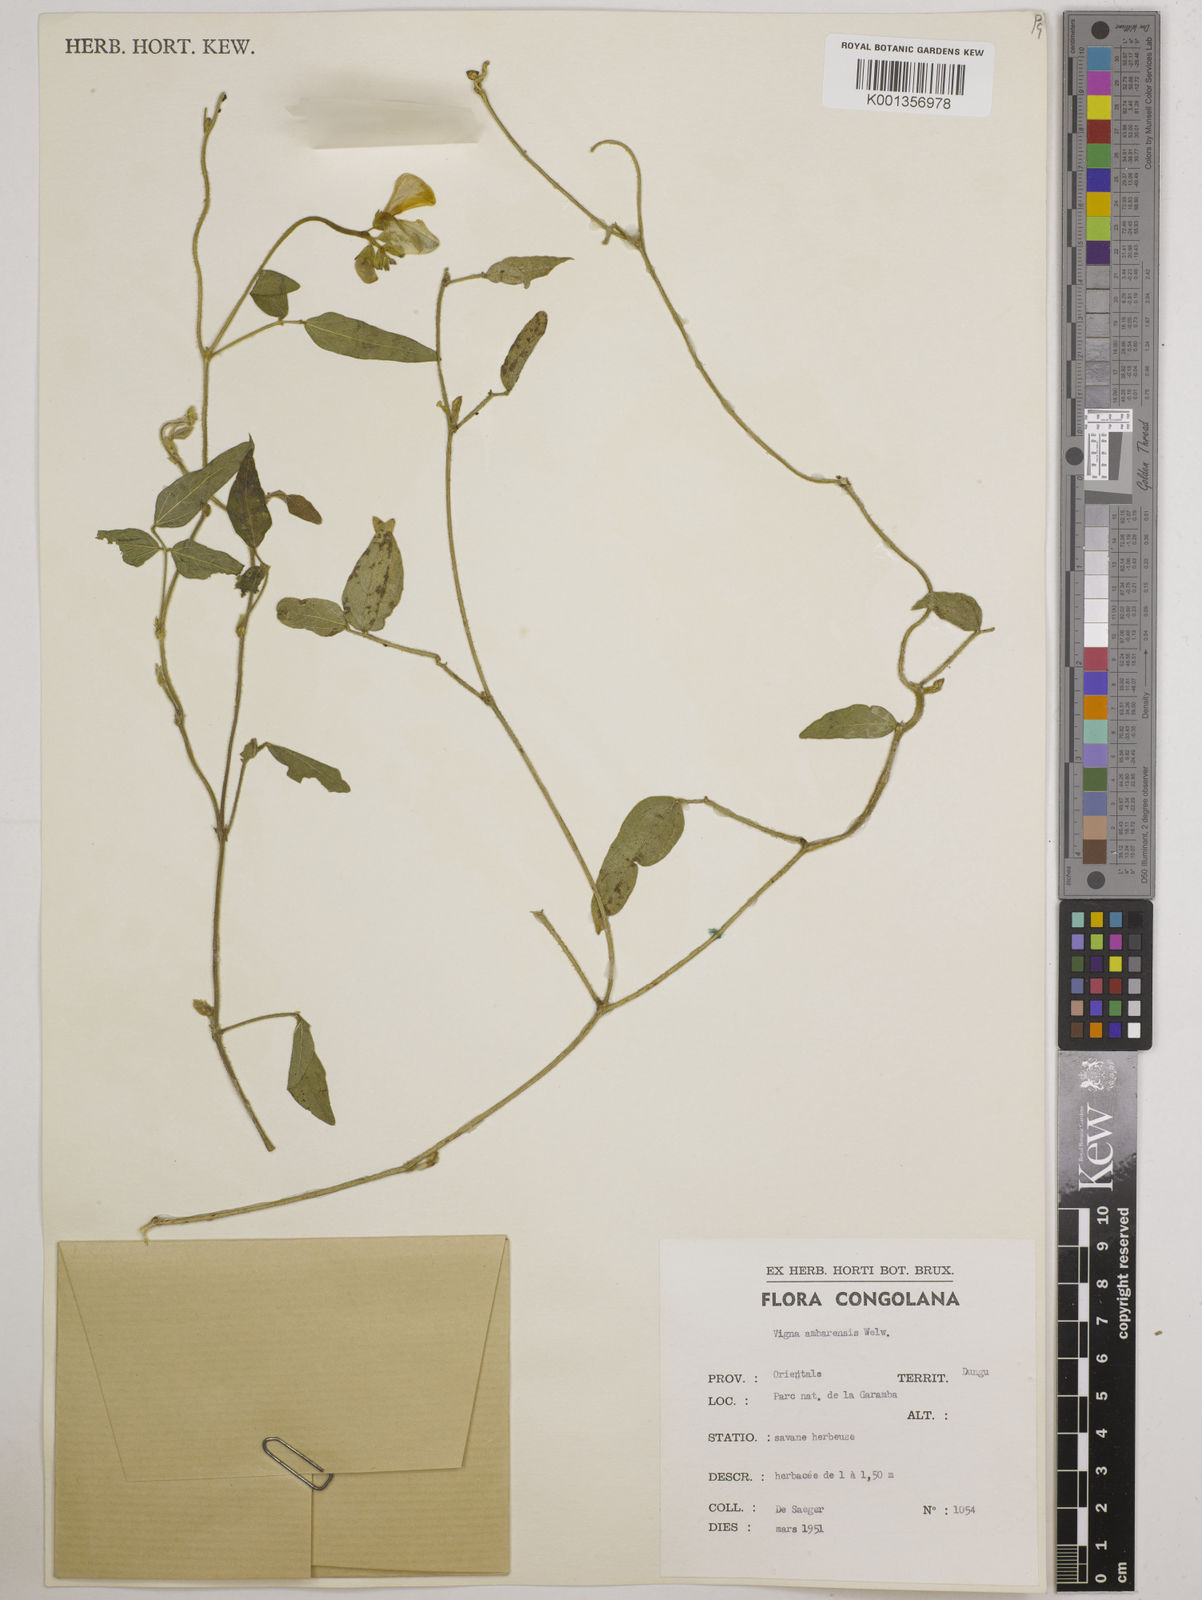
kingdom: Plantae
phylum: Tracheophyta
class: Magnoliopsida
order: Fabales
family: Fabaceae
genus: Vigna
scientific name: Vigna ambacensis
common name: Tsarkiyan zomo
